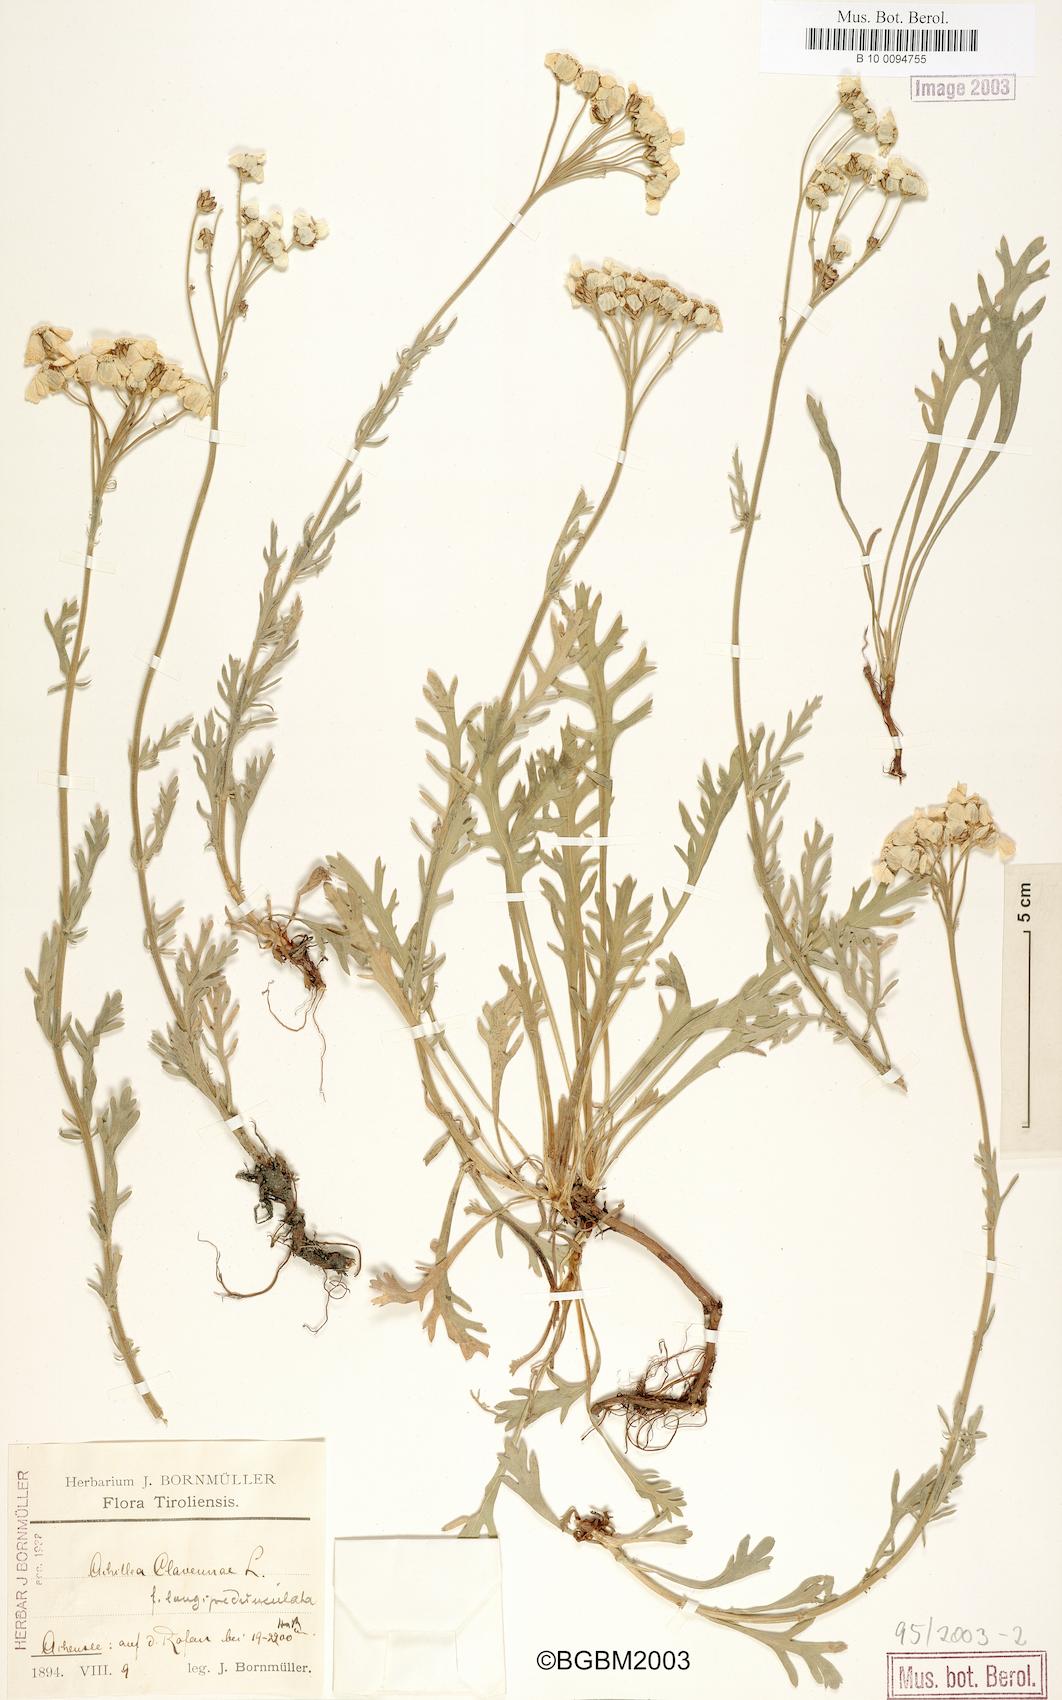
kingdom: Plantae
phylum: Tracheophyta
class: Magnoliopsida
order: Asterales
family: Asteraceae
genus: Achillea
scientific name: Achillea clavennae
